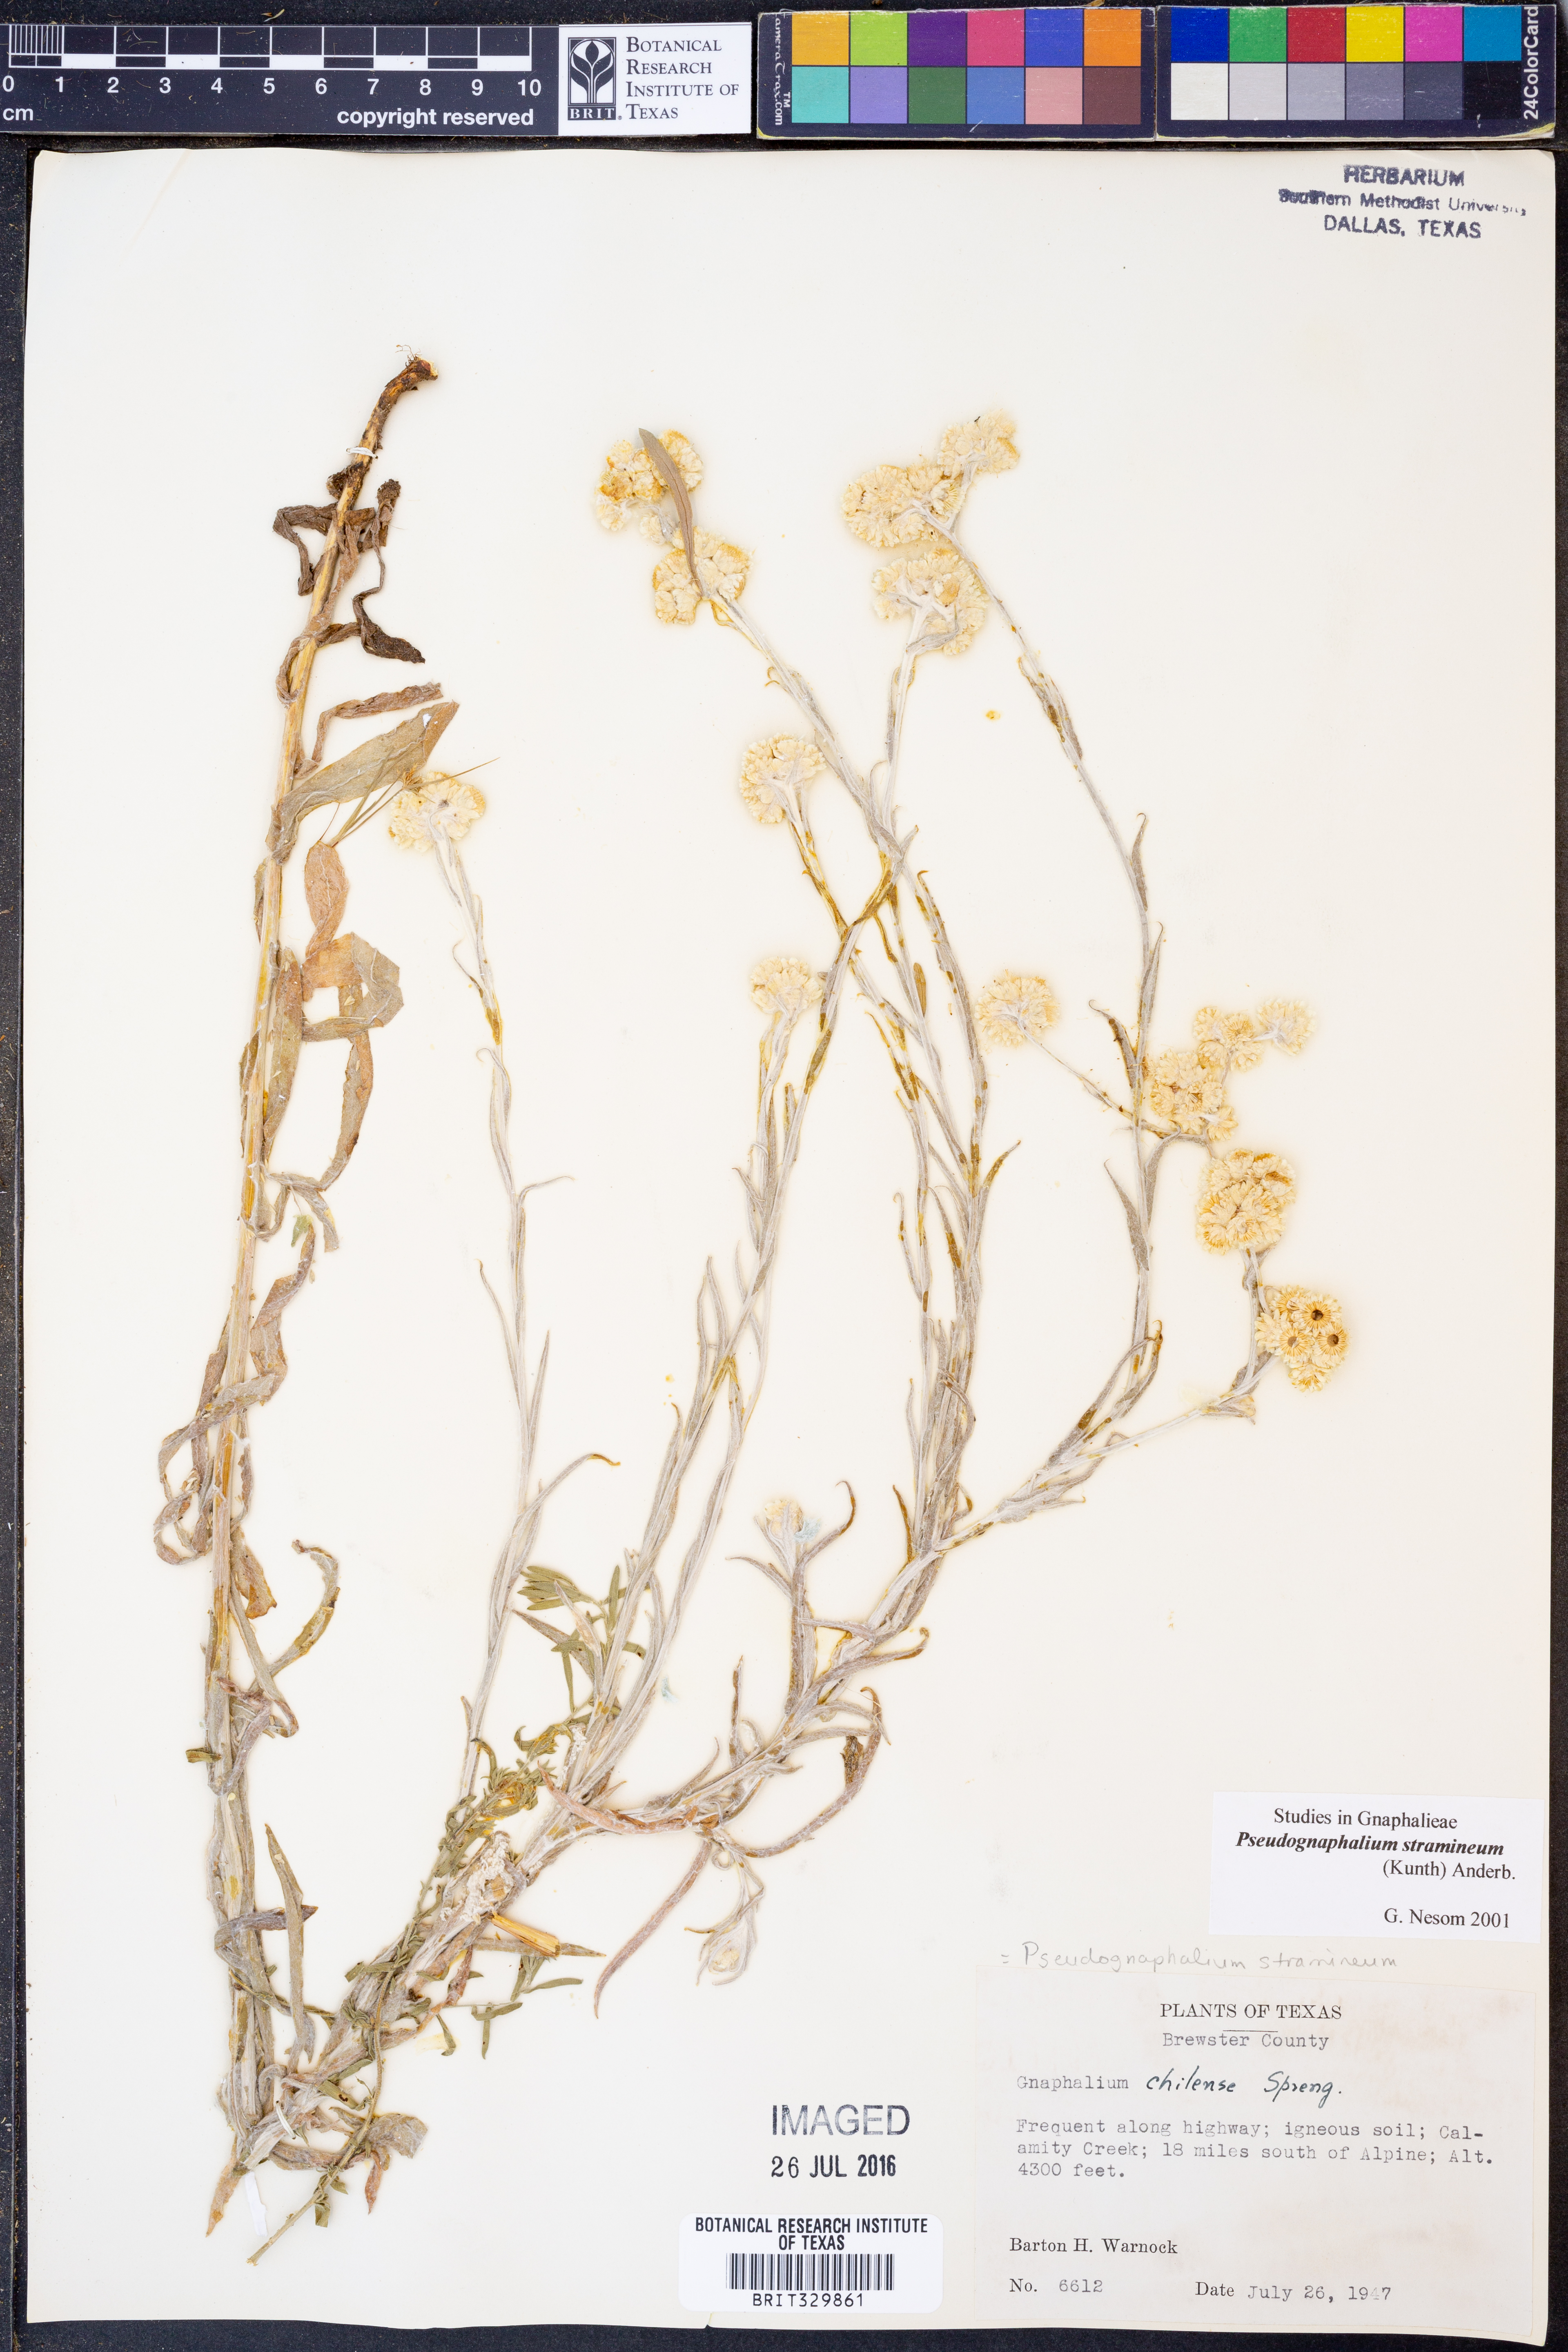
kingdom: Plantae
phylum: Tracheophyta
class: Magnoliopsida
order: Asterales
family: Asteraceae
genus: Pseudognaphalium
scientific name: Pseudognaphalium stramineum
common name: Cotton-batting-plant
